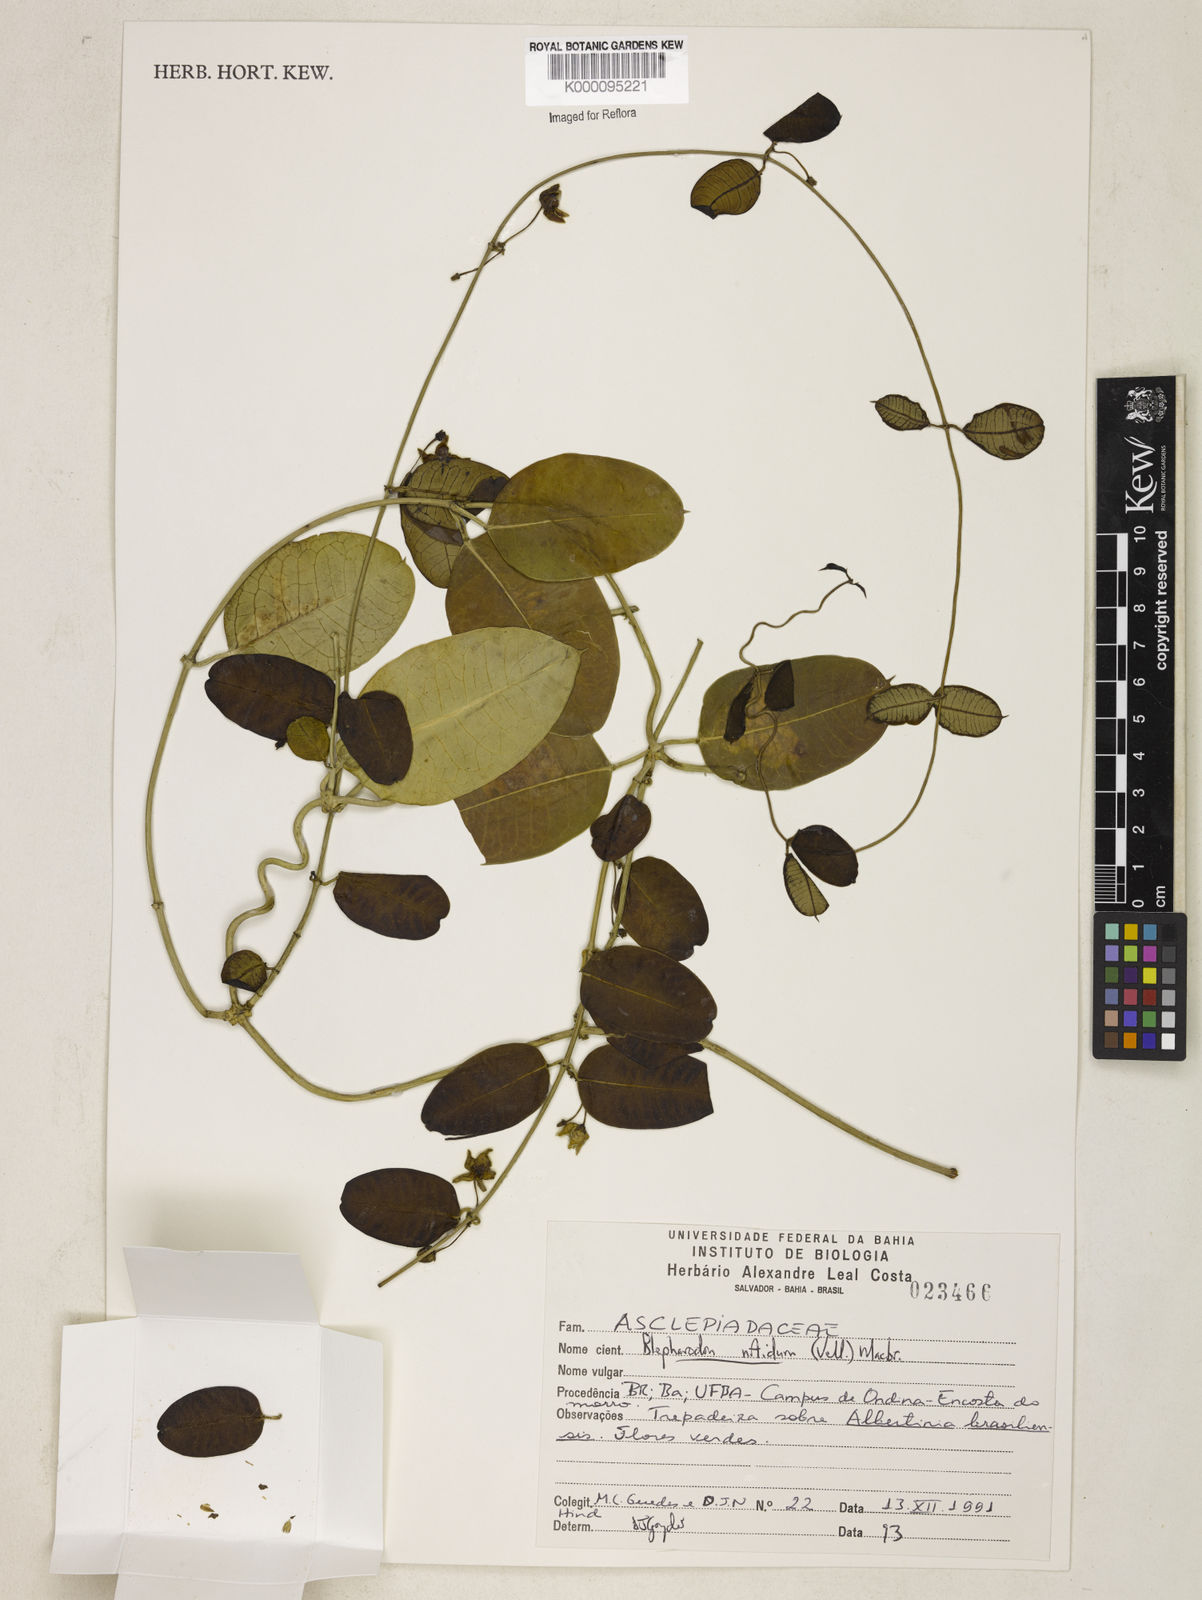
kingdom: Plantae
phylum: Tracheophyta
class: Magnoliopsida
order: Gentianales
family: Apocynaceae
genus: Blepharodon
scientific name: Blepharodon pictum
